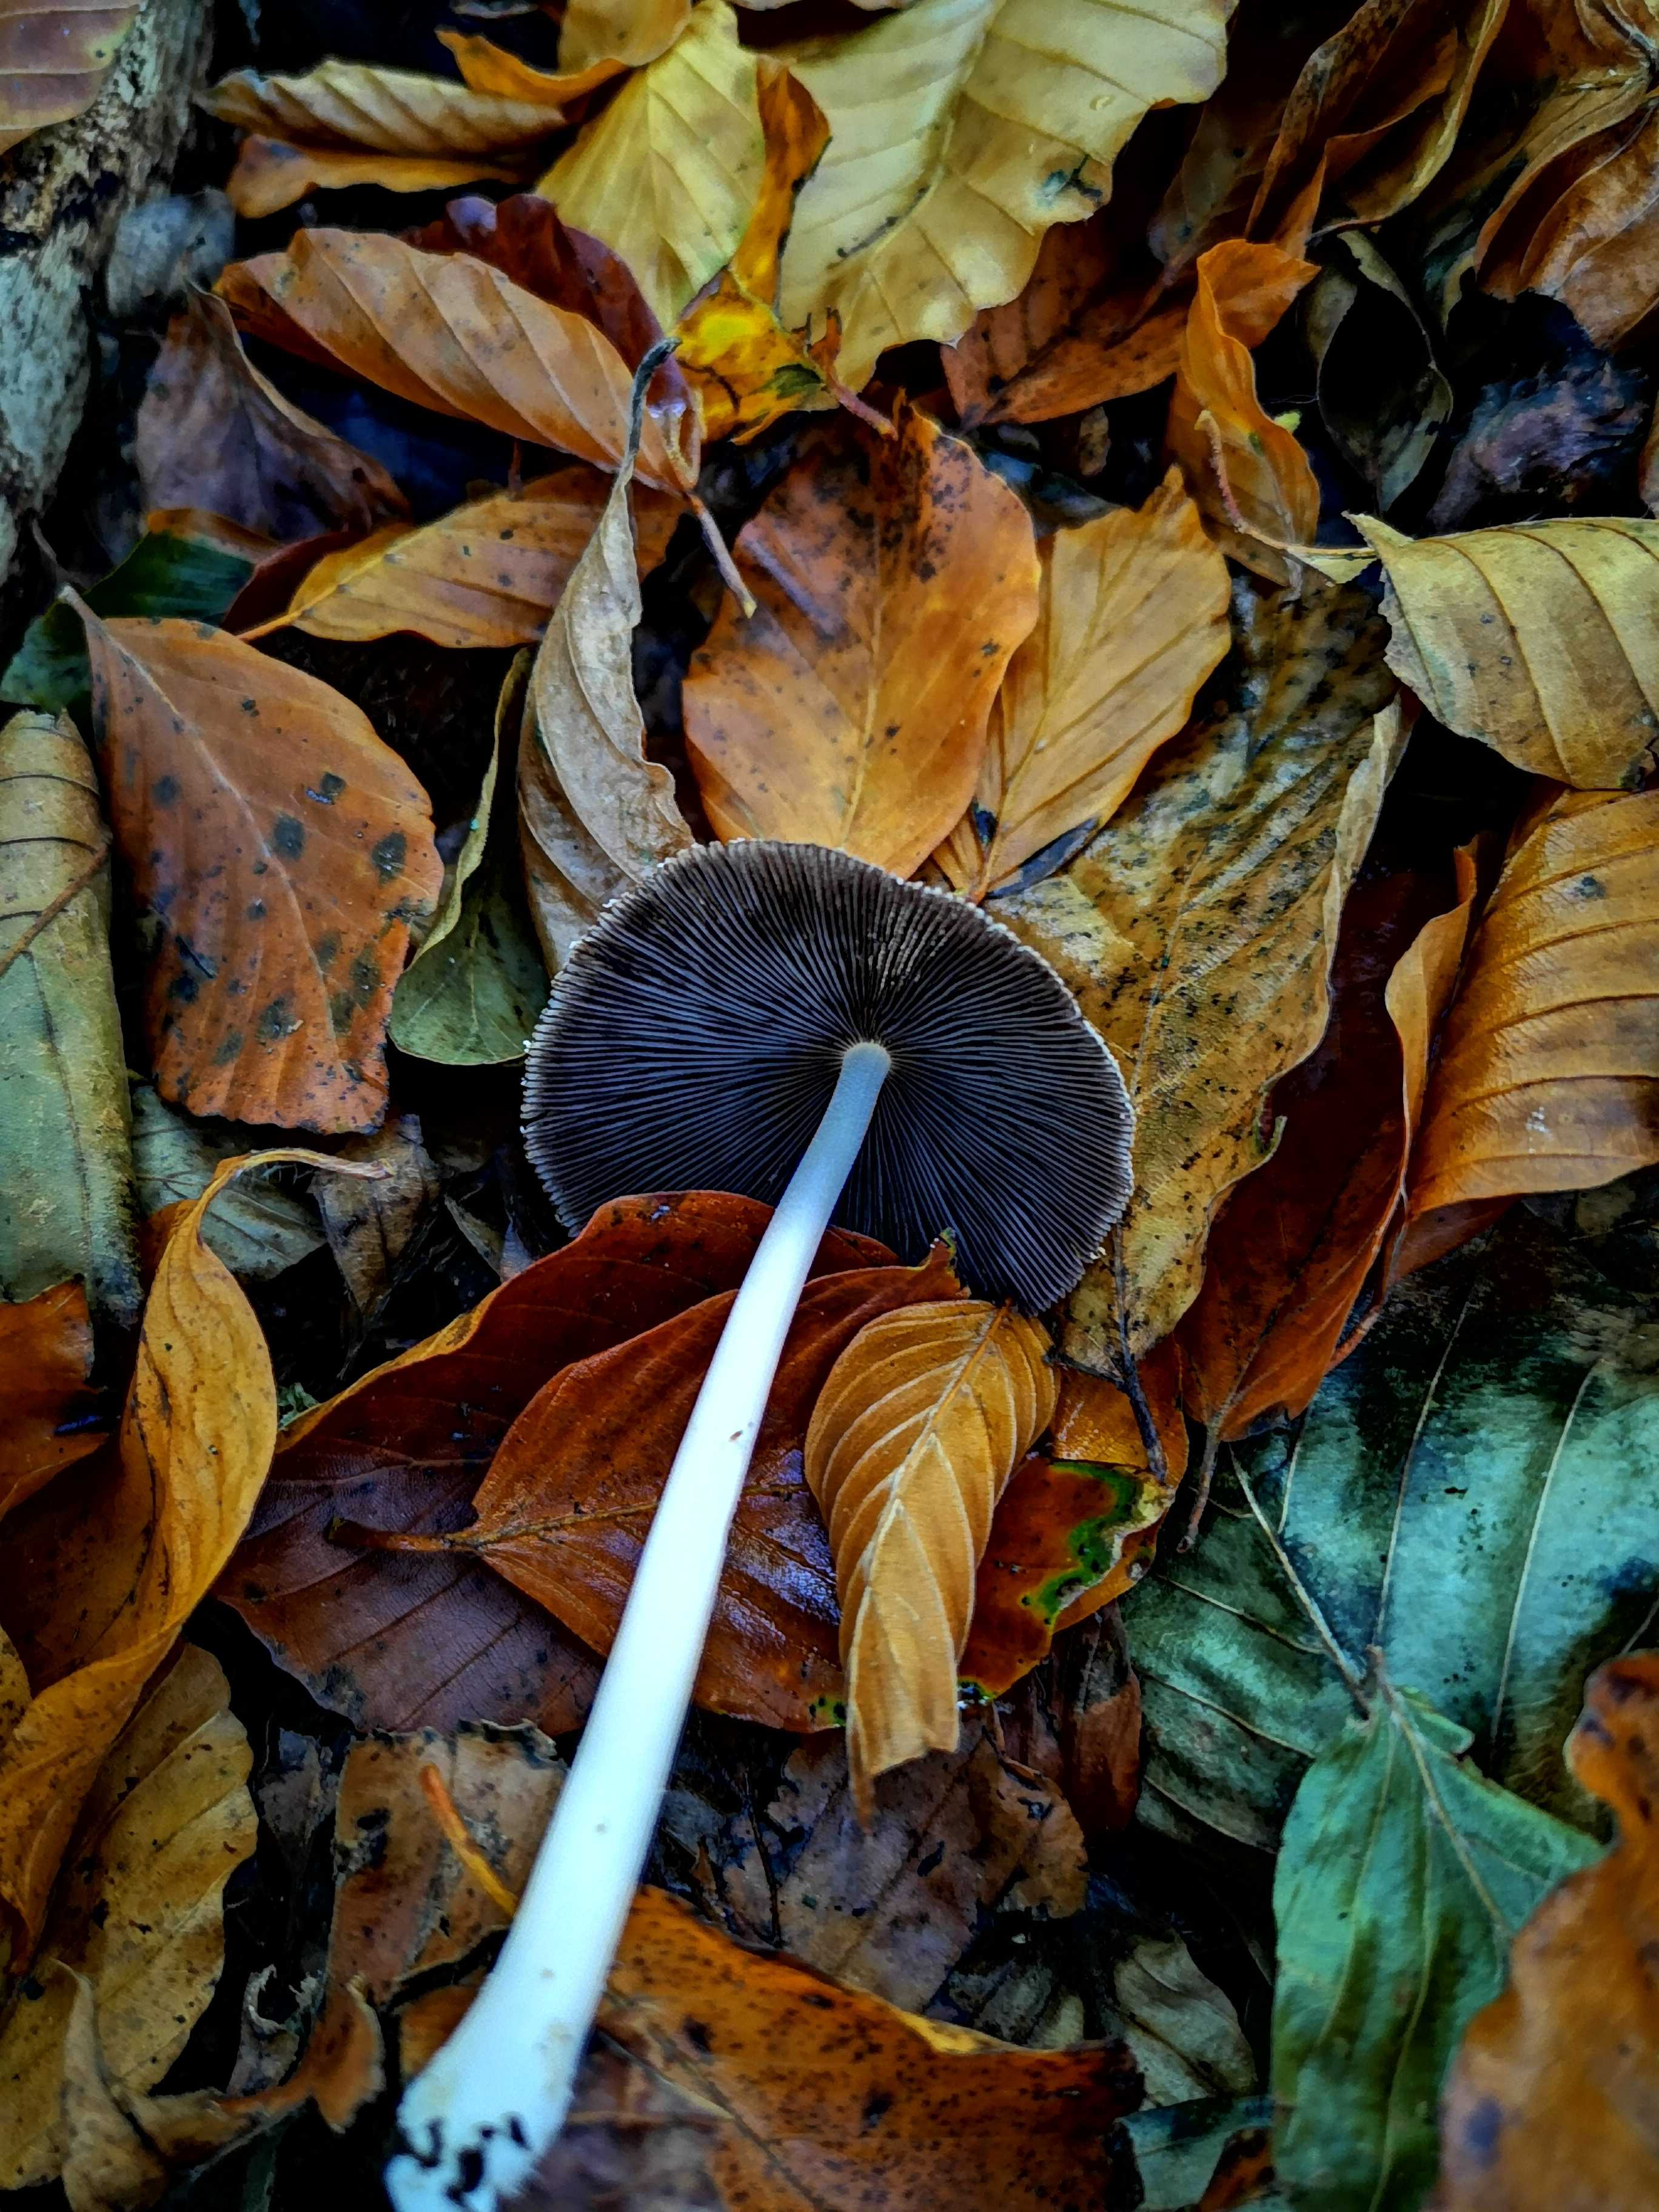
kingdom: Fungi
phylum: Basidiomycota
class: Agaricomycetes
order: Agaricales
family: Psathyrellaceae
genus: Coprinellus
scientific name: Coprinellus
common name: blækhat
